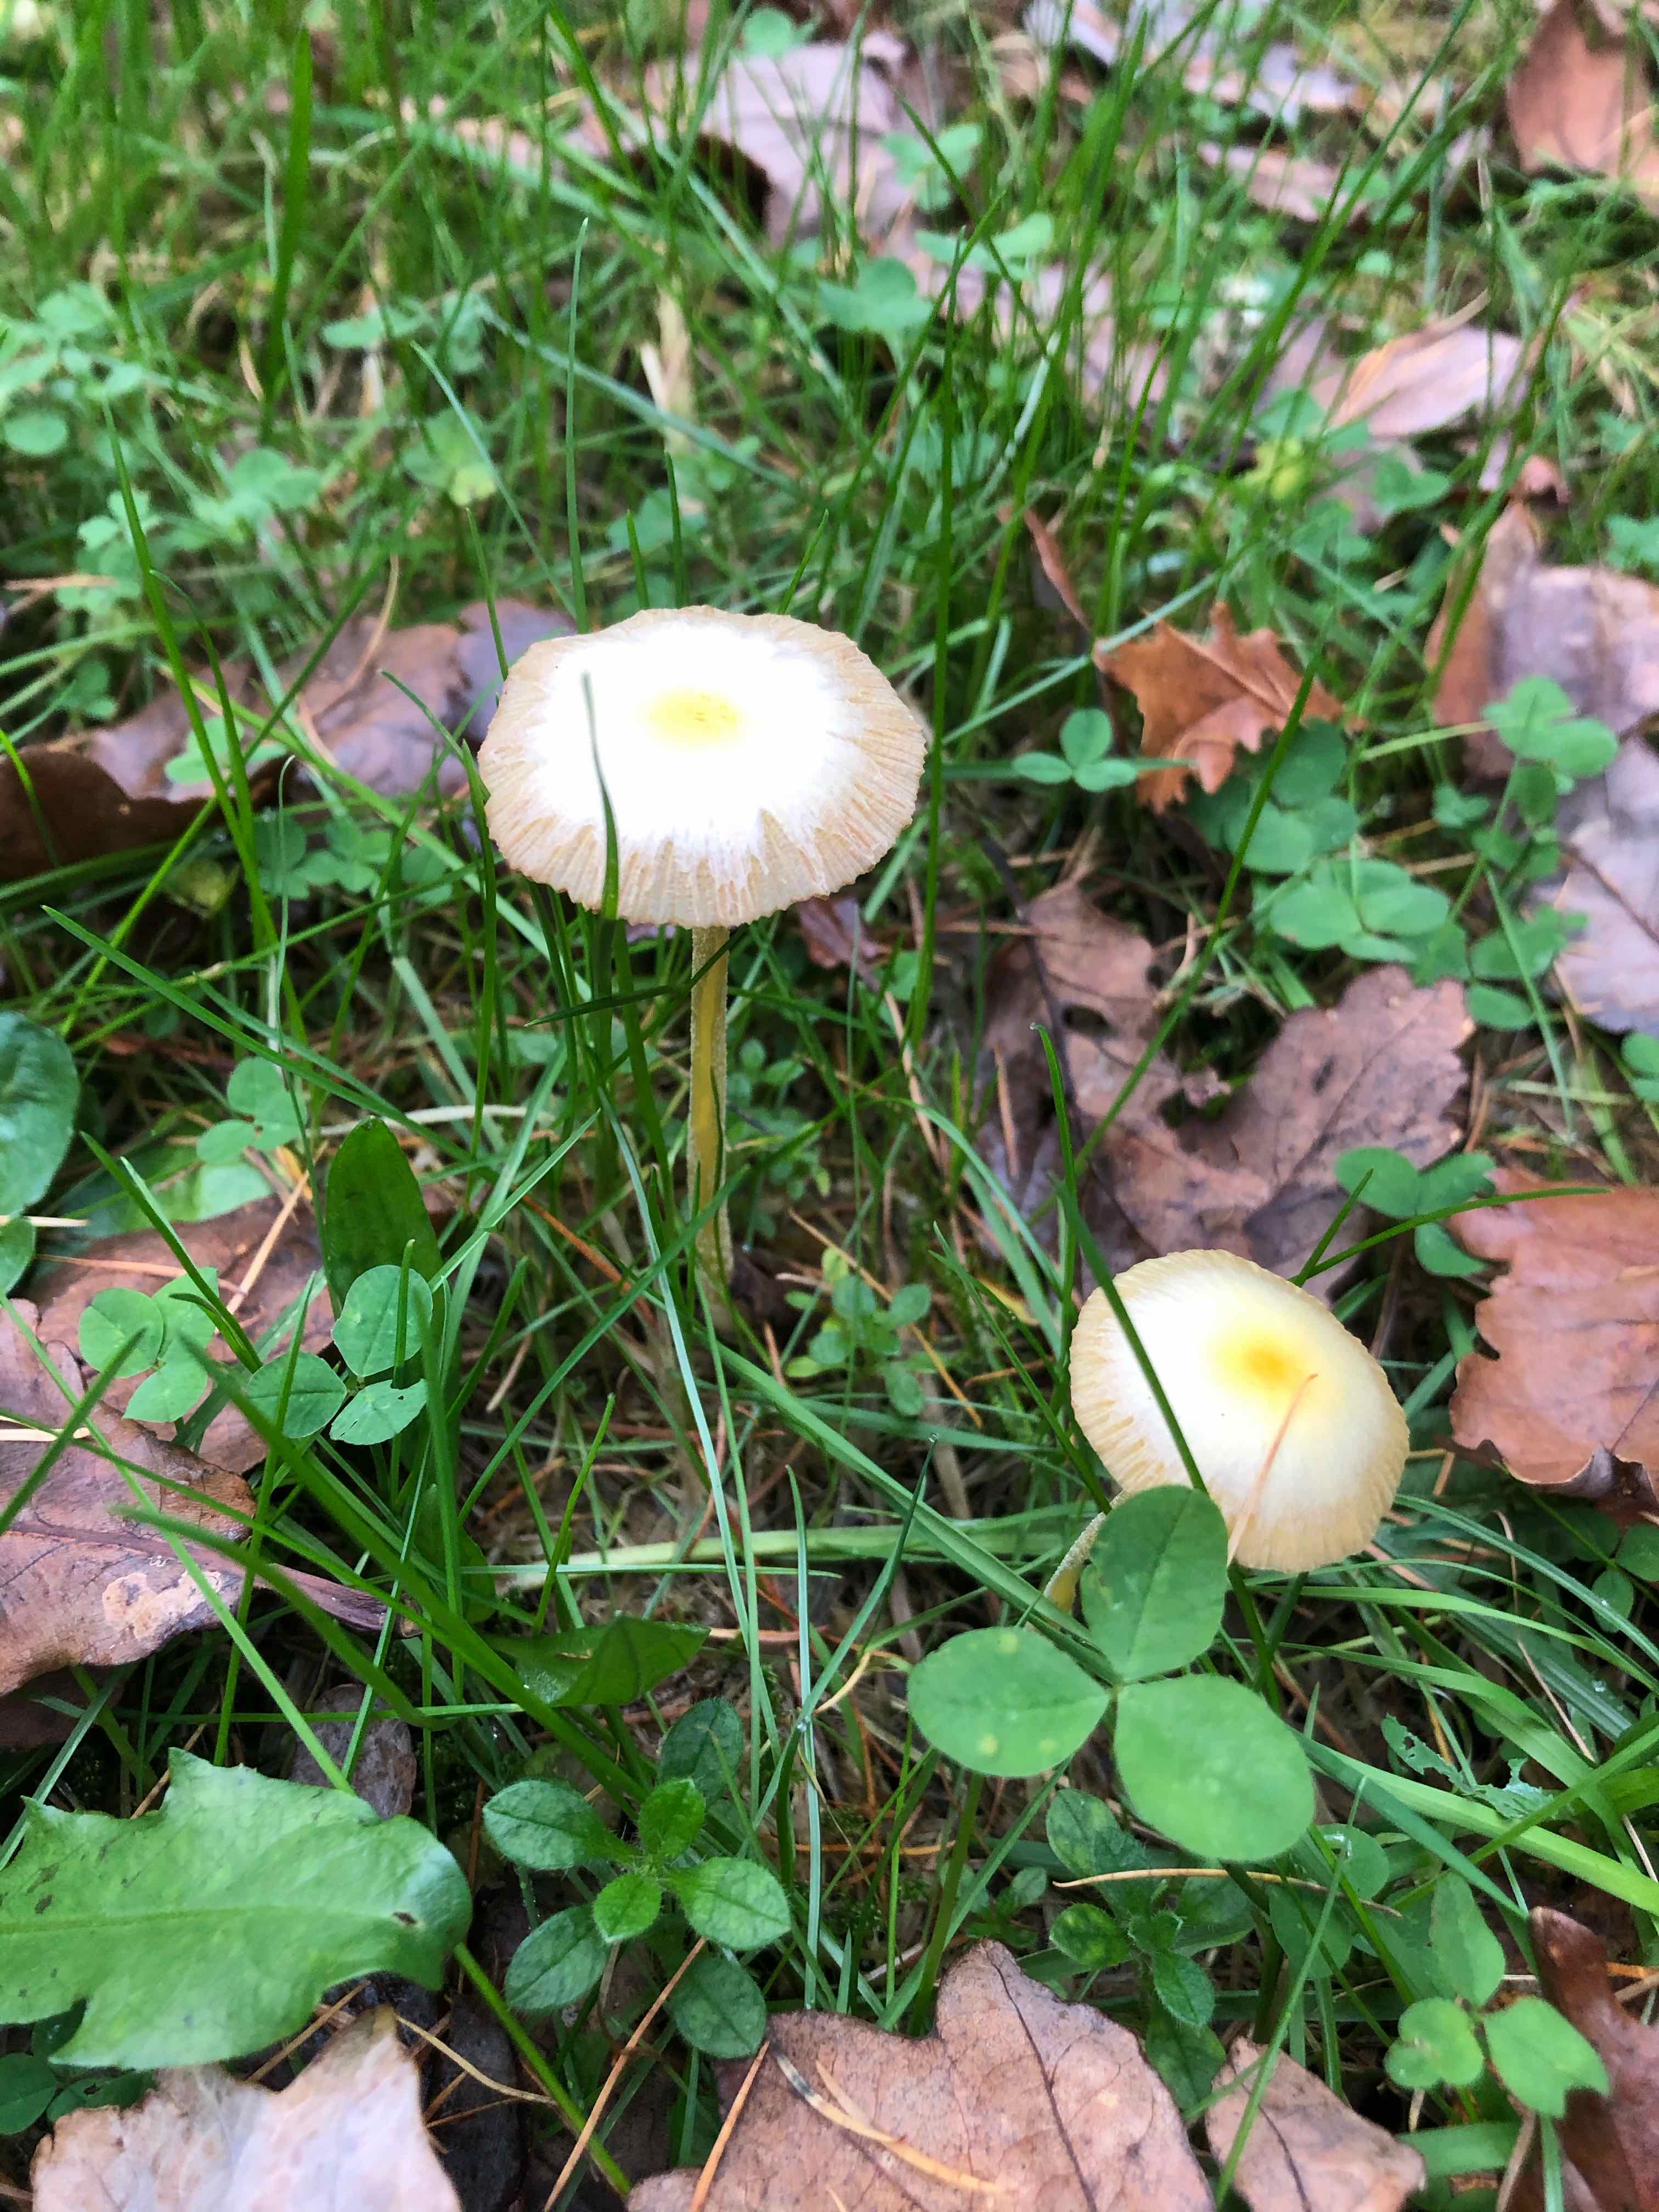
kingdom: Fungi
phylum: Basidiomycota
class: Agaricomycetes
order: Agaricales
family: Bolbitiaceae
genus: Bolbitius
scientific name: Bolbitius titubans
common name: almindelig gulhat
